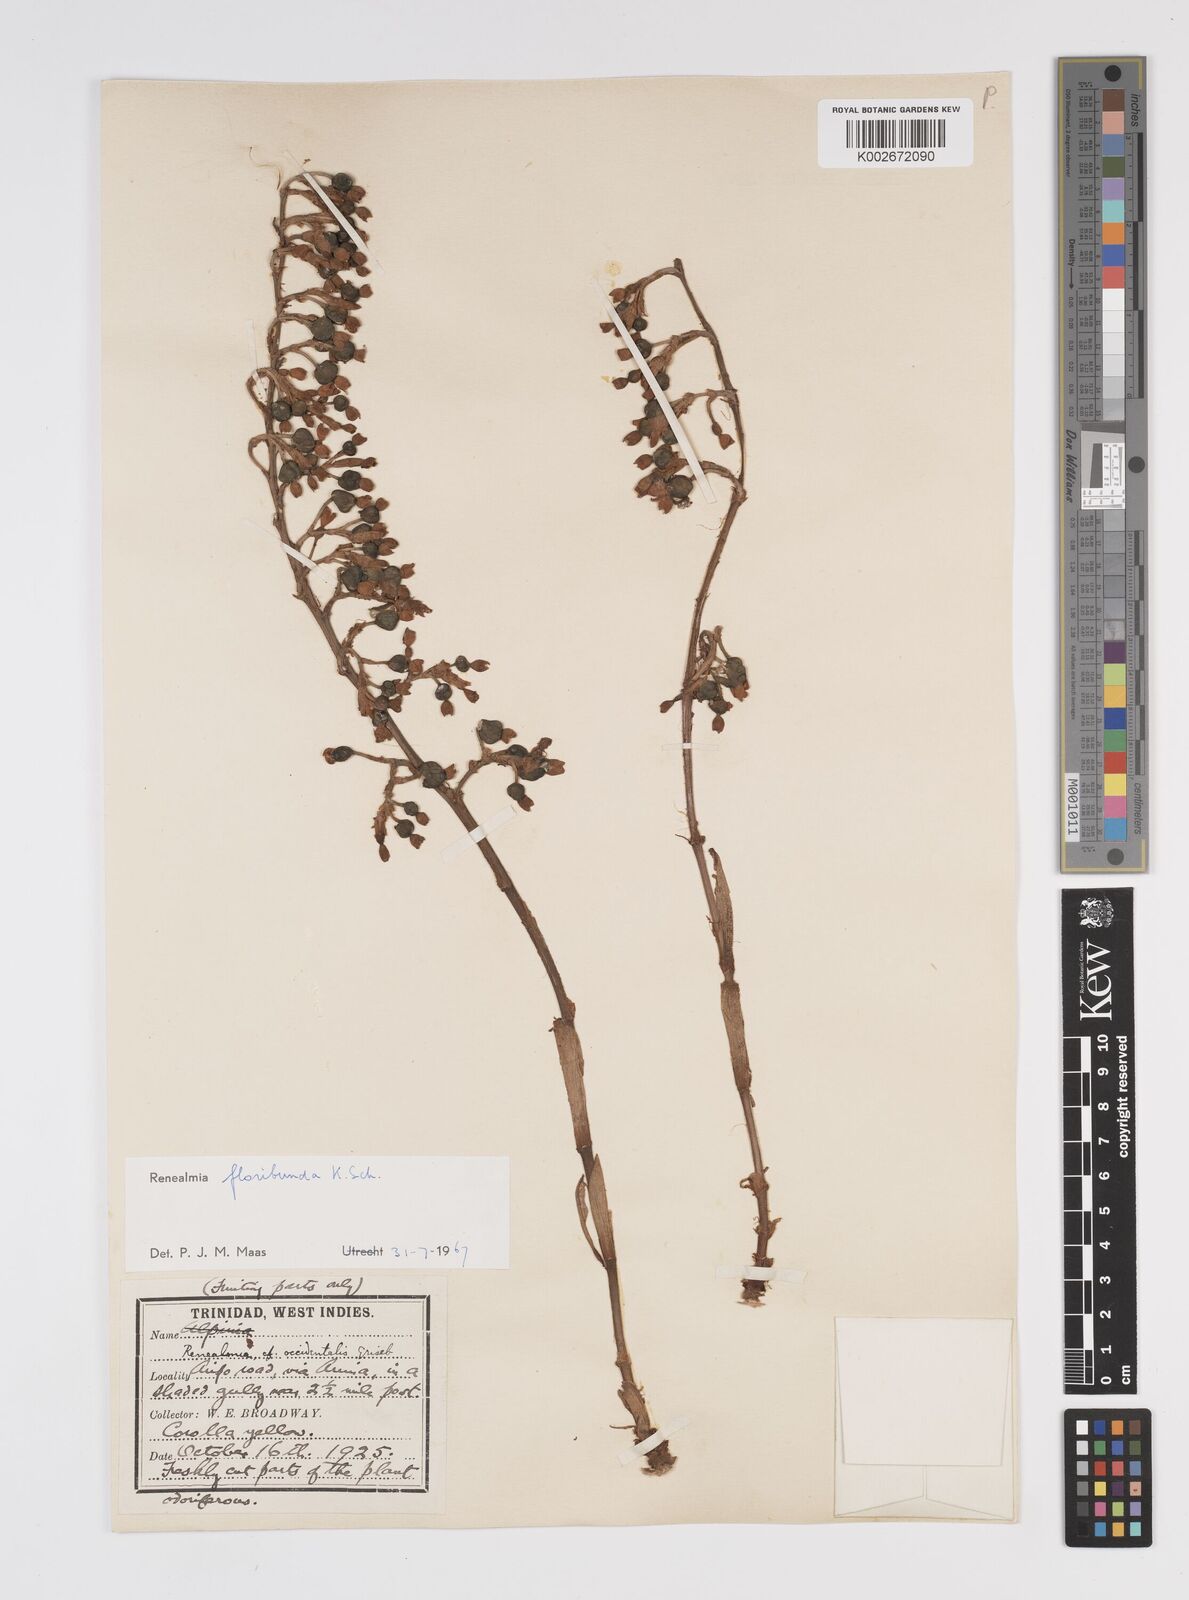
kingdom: Plantae
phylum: Tracheophyta
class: Liliopsida
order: Zingiberales
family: Zingiberaceae
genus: Renealmia
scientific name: Renealmia floribunda
